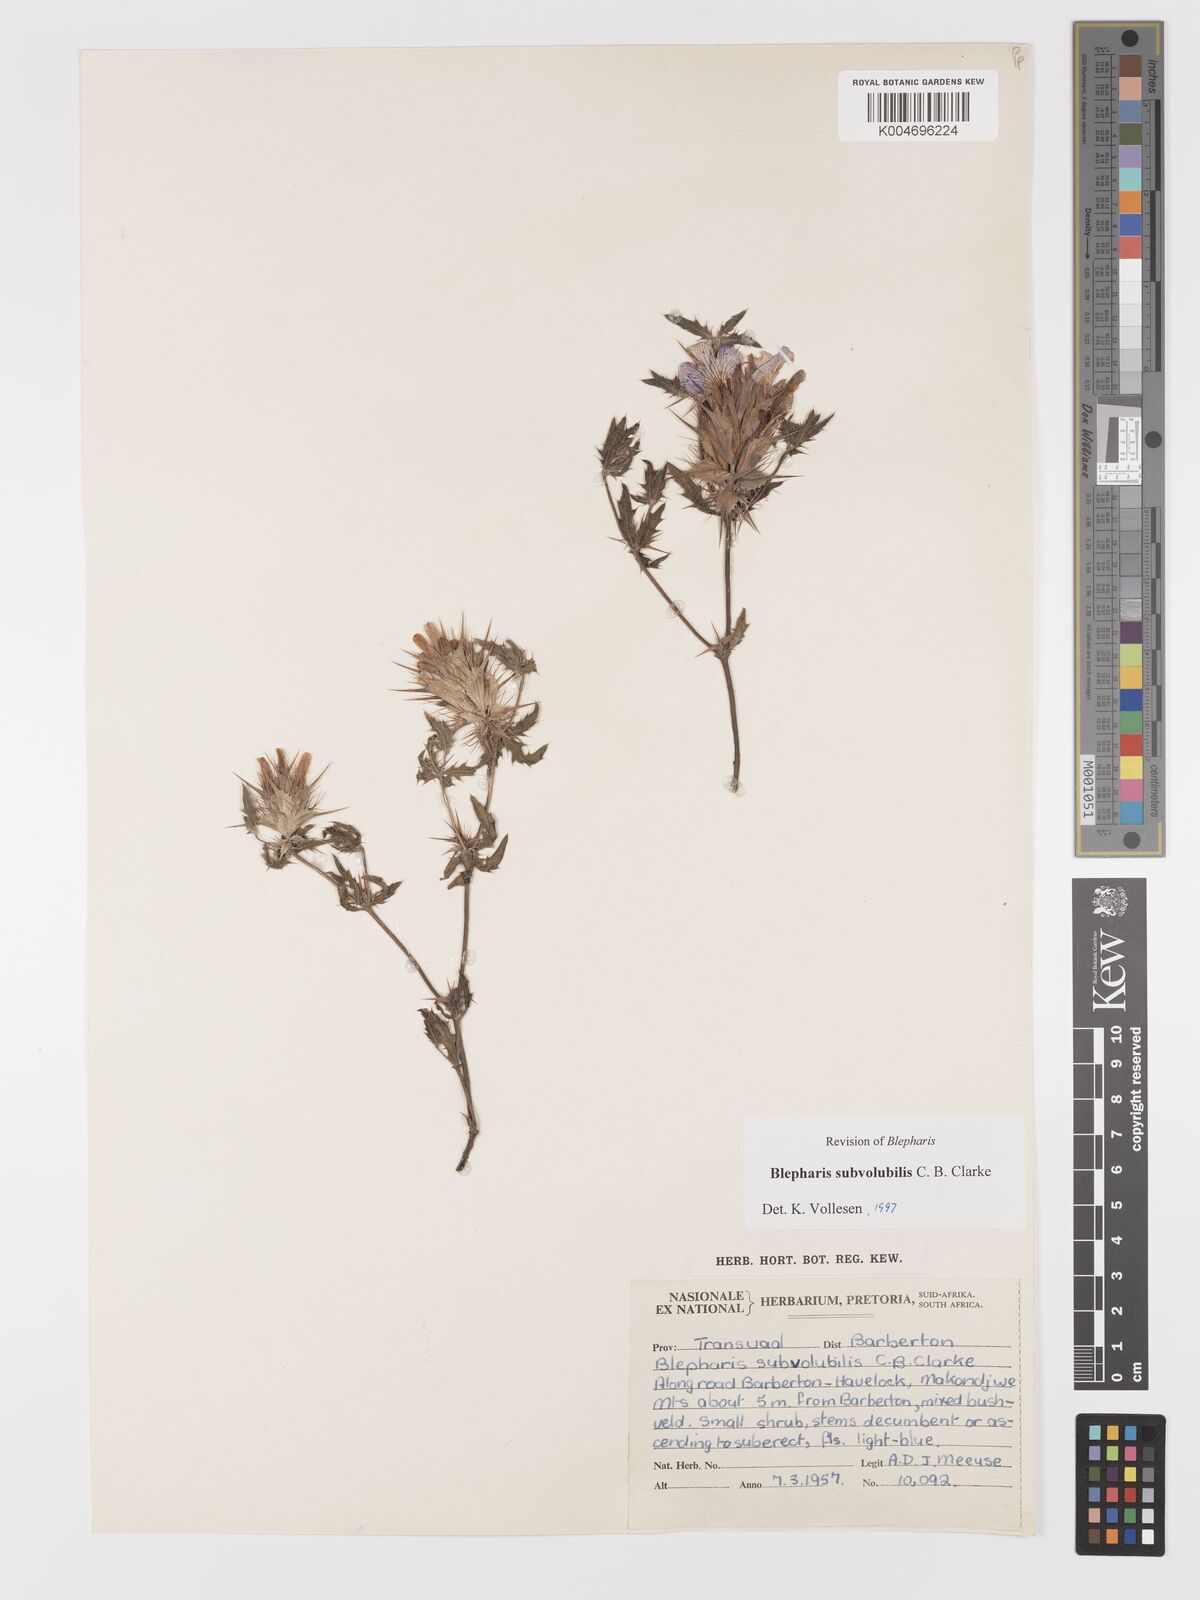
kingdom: Plantae
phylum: Tracheophyta
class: Magnoliopsida
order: Lamiales
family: Acanthaceae
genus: Blepharis
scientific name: Blepharis subvolubilis
